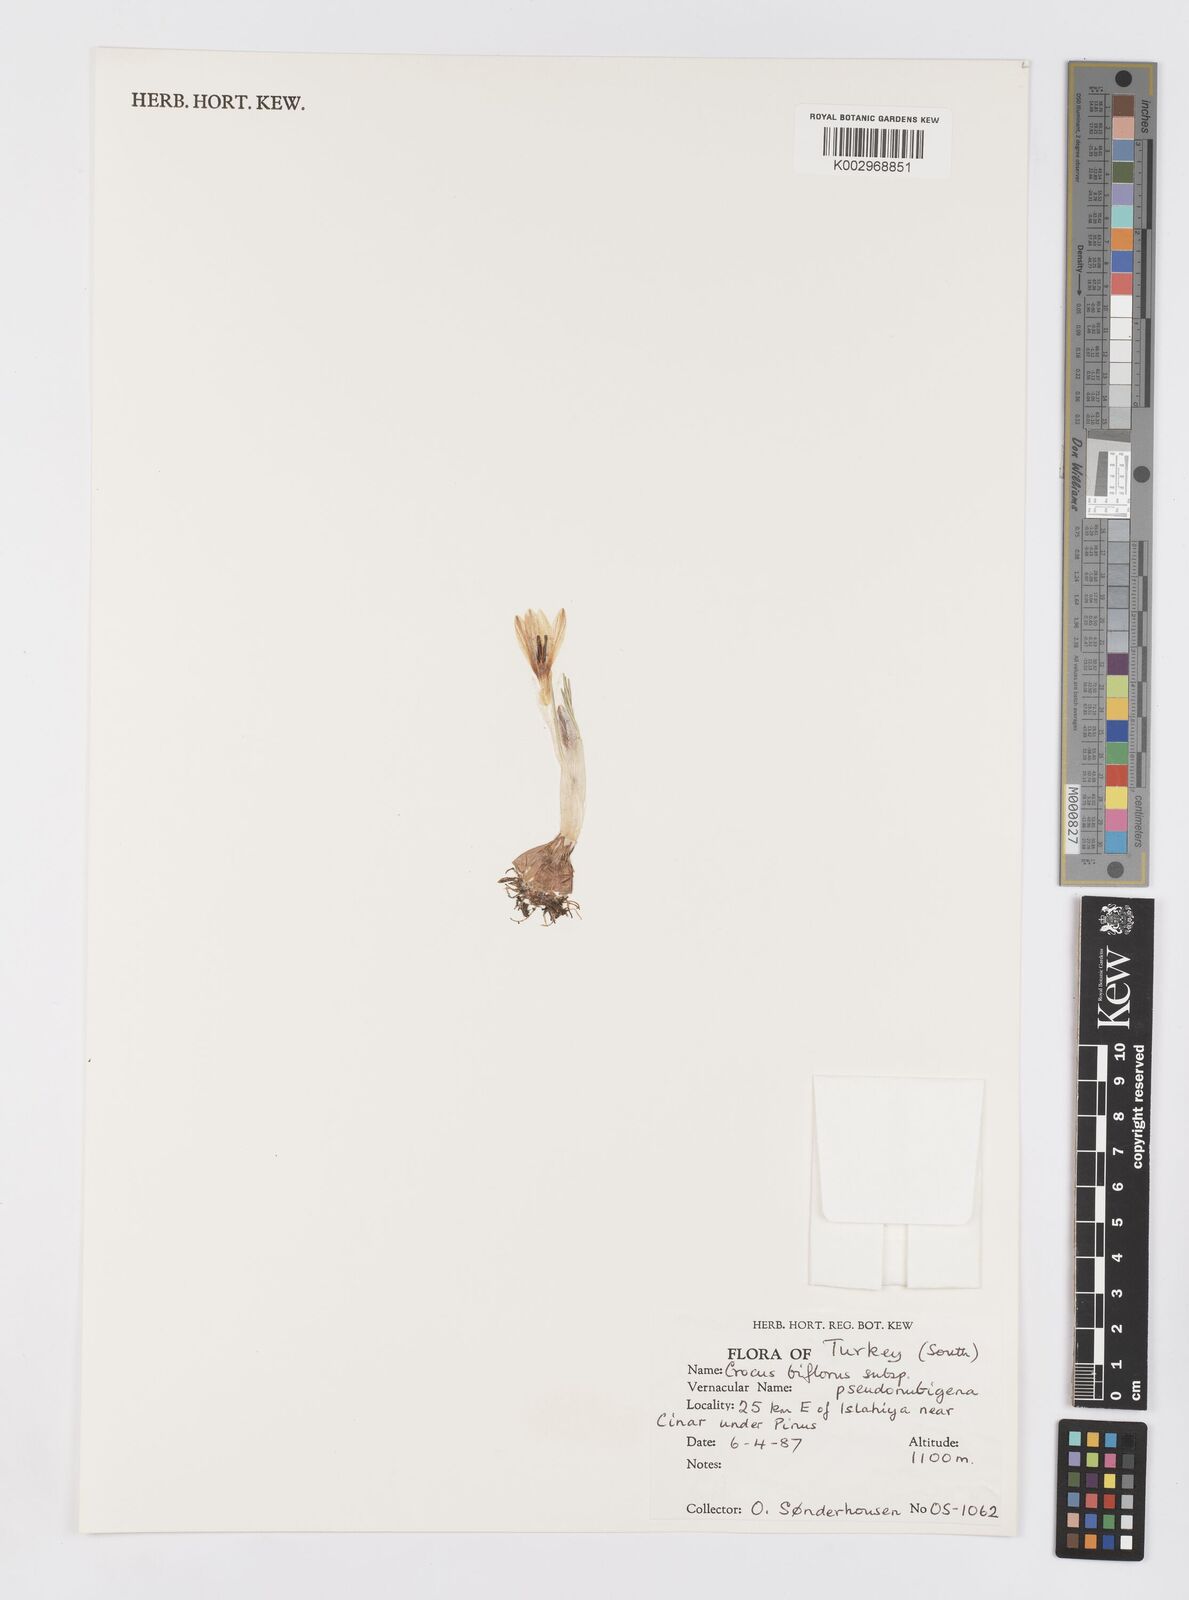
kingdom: Plantae
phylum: Tracheophyta
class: Liliopsida
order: Asparagales
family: Iridaceae
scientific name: Iridaceae
